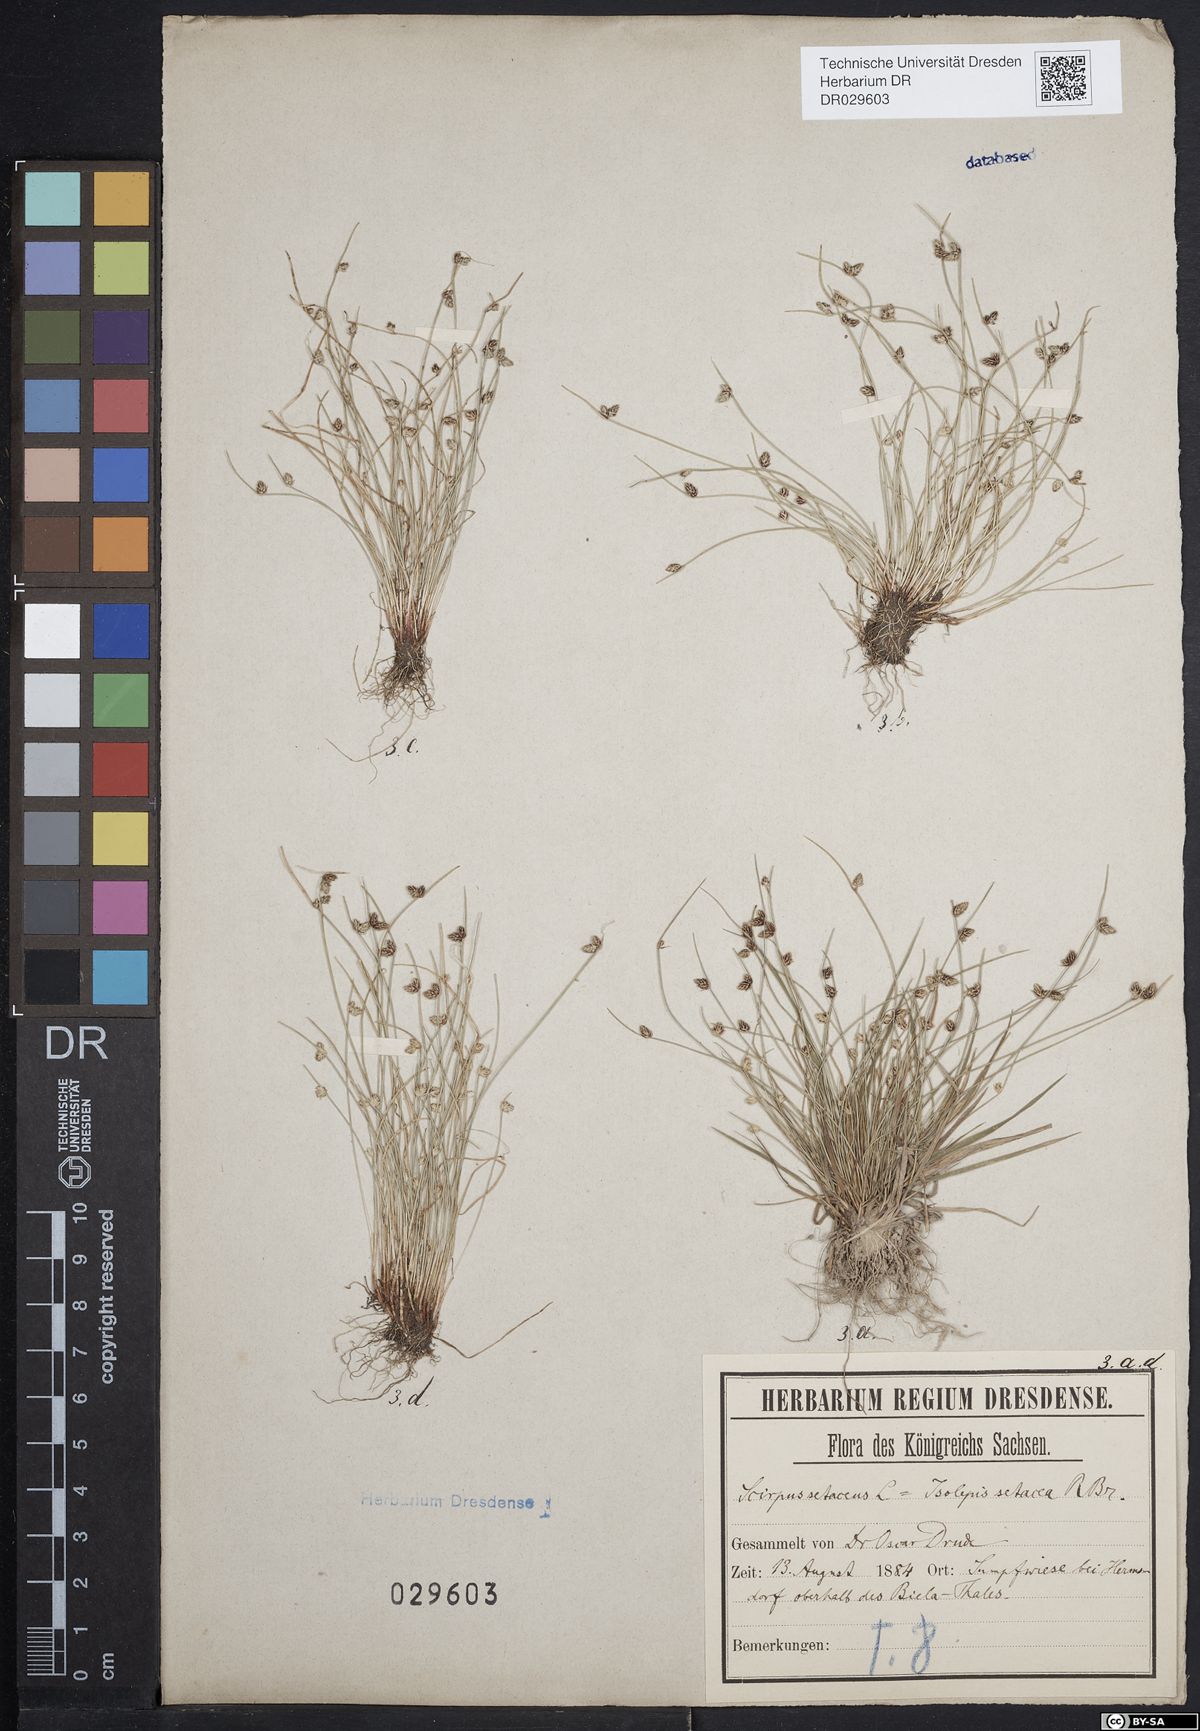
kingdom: Plantae
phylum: Tracheophyta
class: Liliopsida
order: Poales
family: Cyperaceae
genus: Isolepis
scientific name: Isolepis setacea
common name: Bristle club-rush
